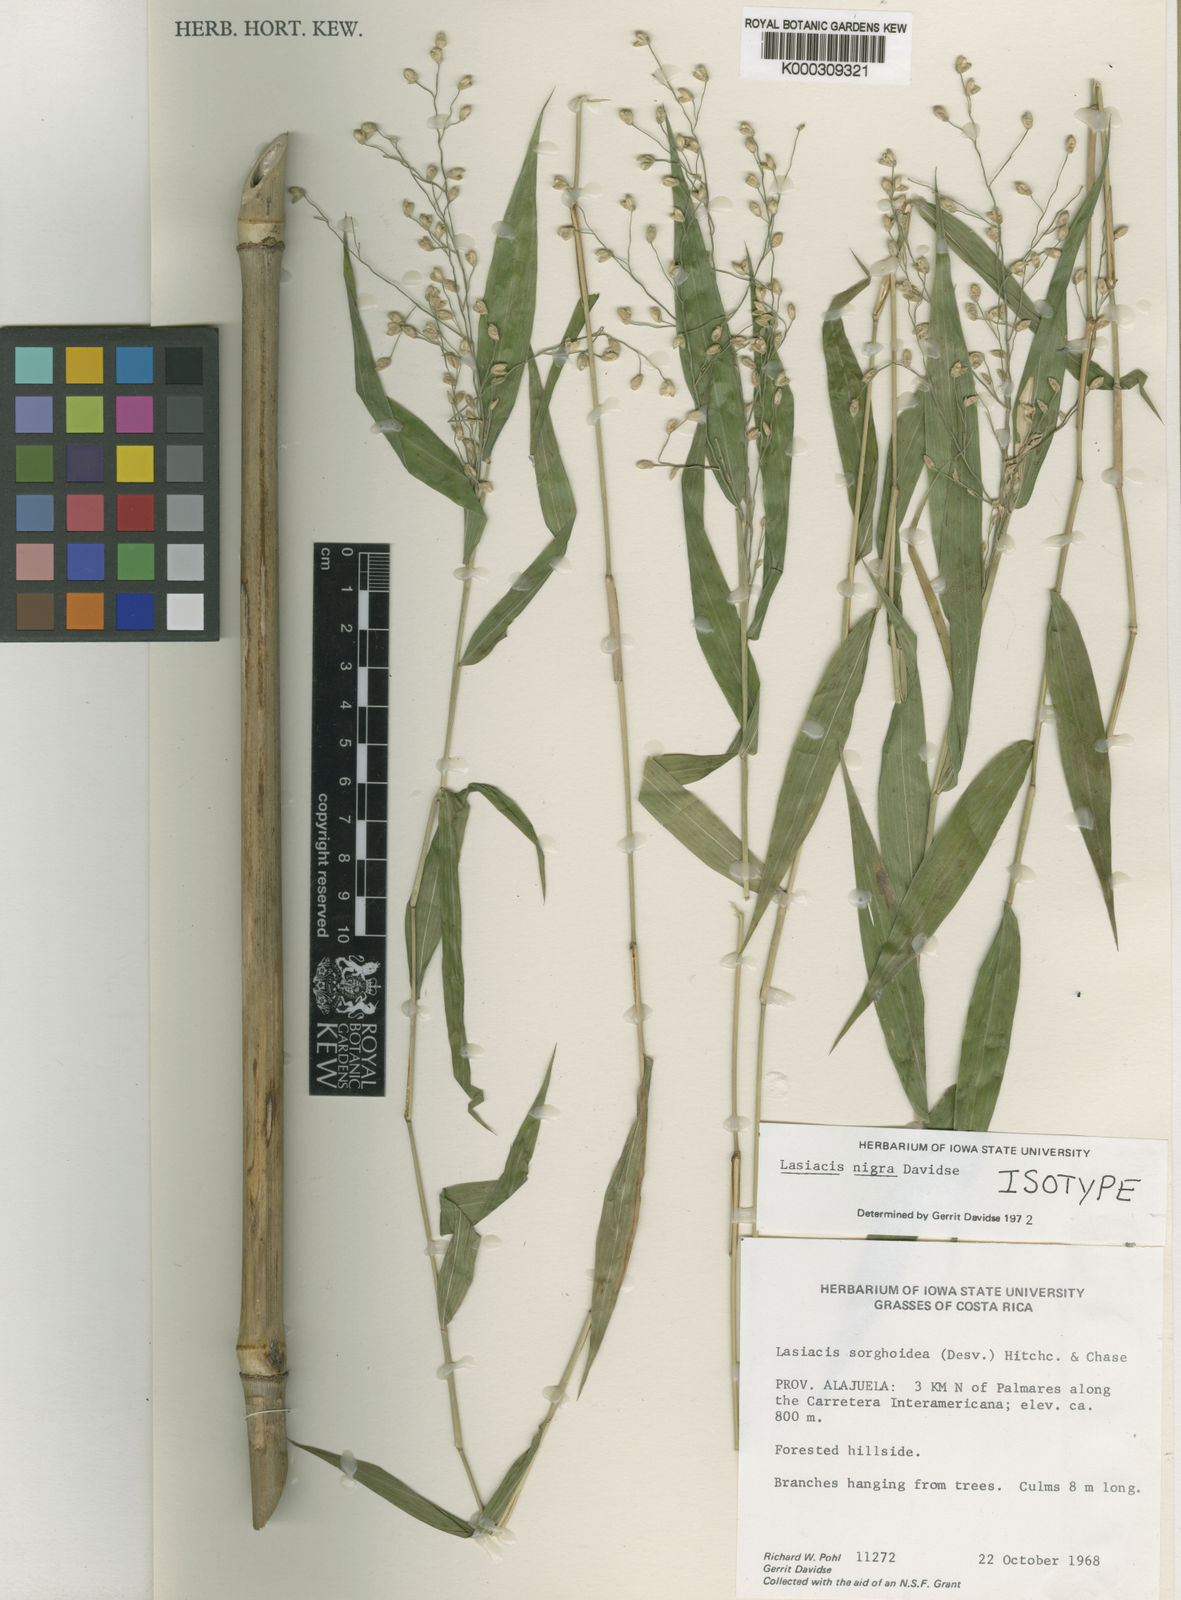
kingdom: Plantae
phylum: Tracheophyta
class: Liliopsida
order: Poales
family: Poaceae
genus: Lasiacis
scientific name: Lasiacis nigra
